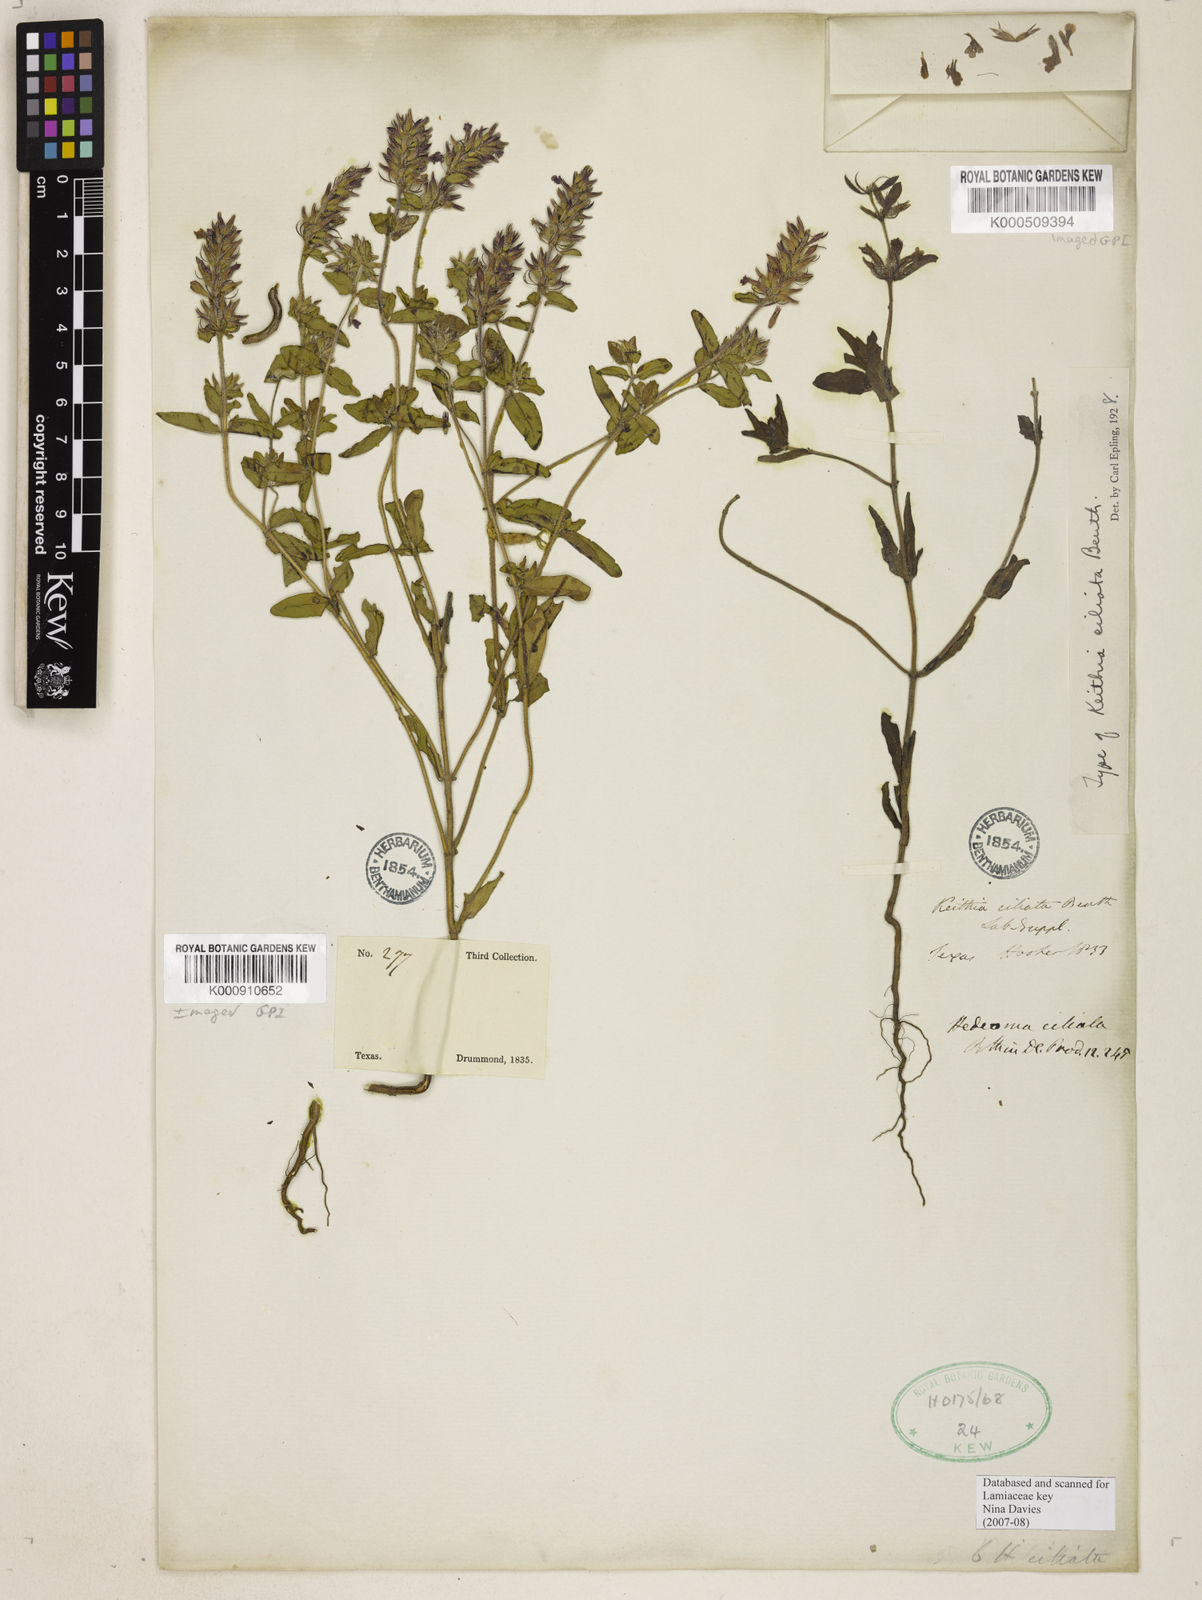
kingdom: Plantae
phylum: Tracheophyta
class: Magnoliopsida
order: Lamiales
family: Lamiaceae
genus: Rhododon
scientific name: Rhododon ciliatus
